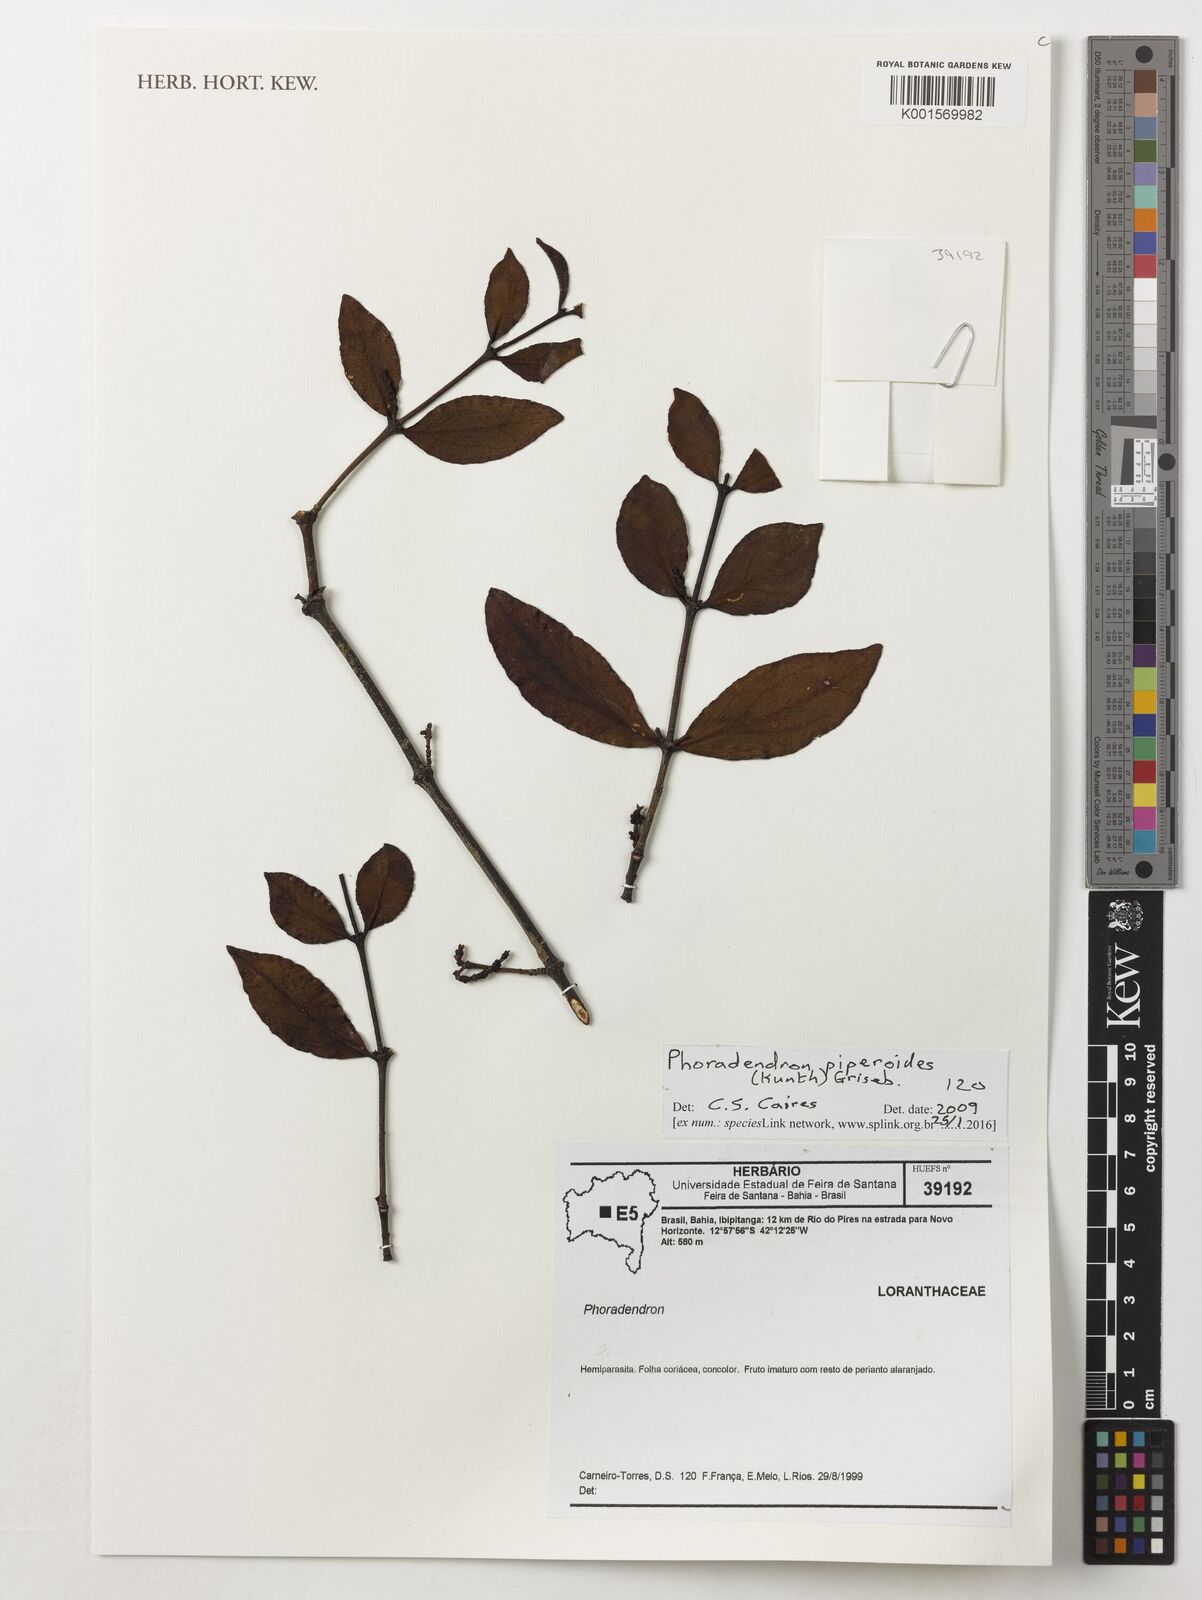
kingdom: Plantae
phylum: Tracheophyta
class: Magnoliopsida
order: Santalales
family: Viscaceae
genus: Phoradendron
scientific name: Phoradendron piperoides
